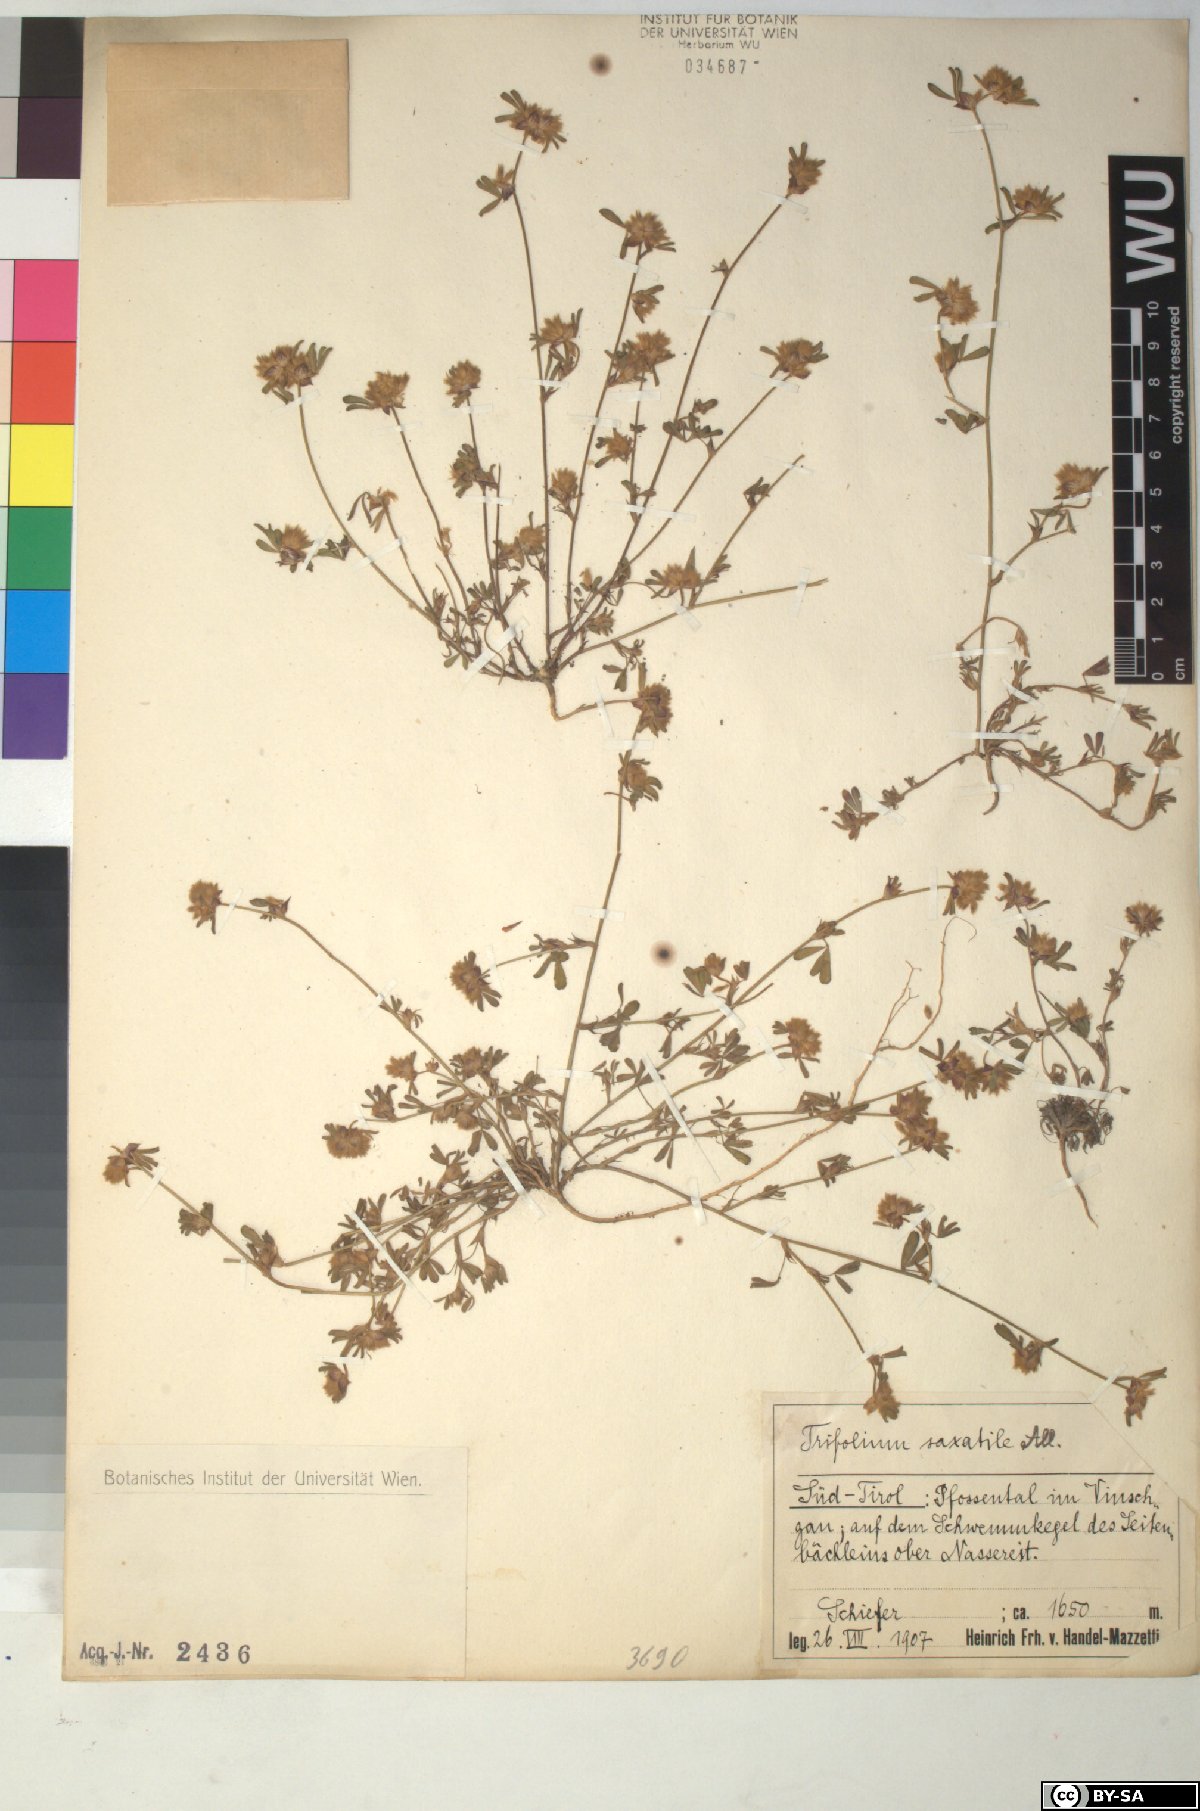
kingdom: Plantae
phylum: Tracheophyta
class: Magnoliopsida
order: Fabales
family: Fabaceae
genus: Trifolium
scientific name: Trifolium saxatile
